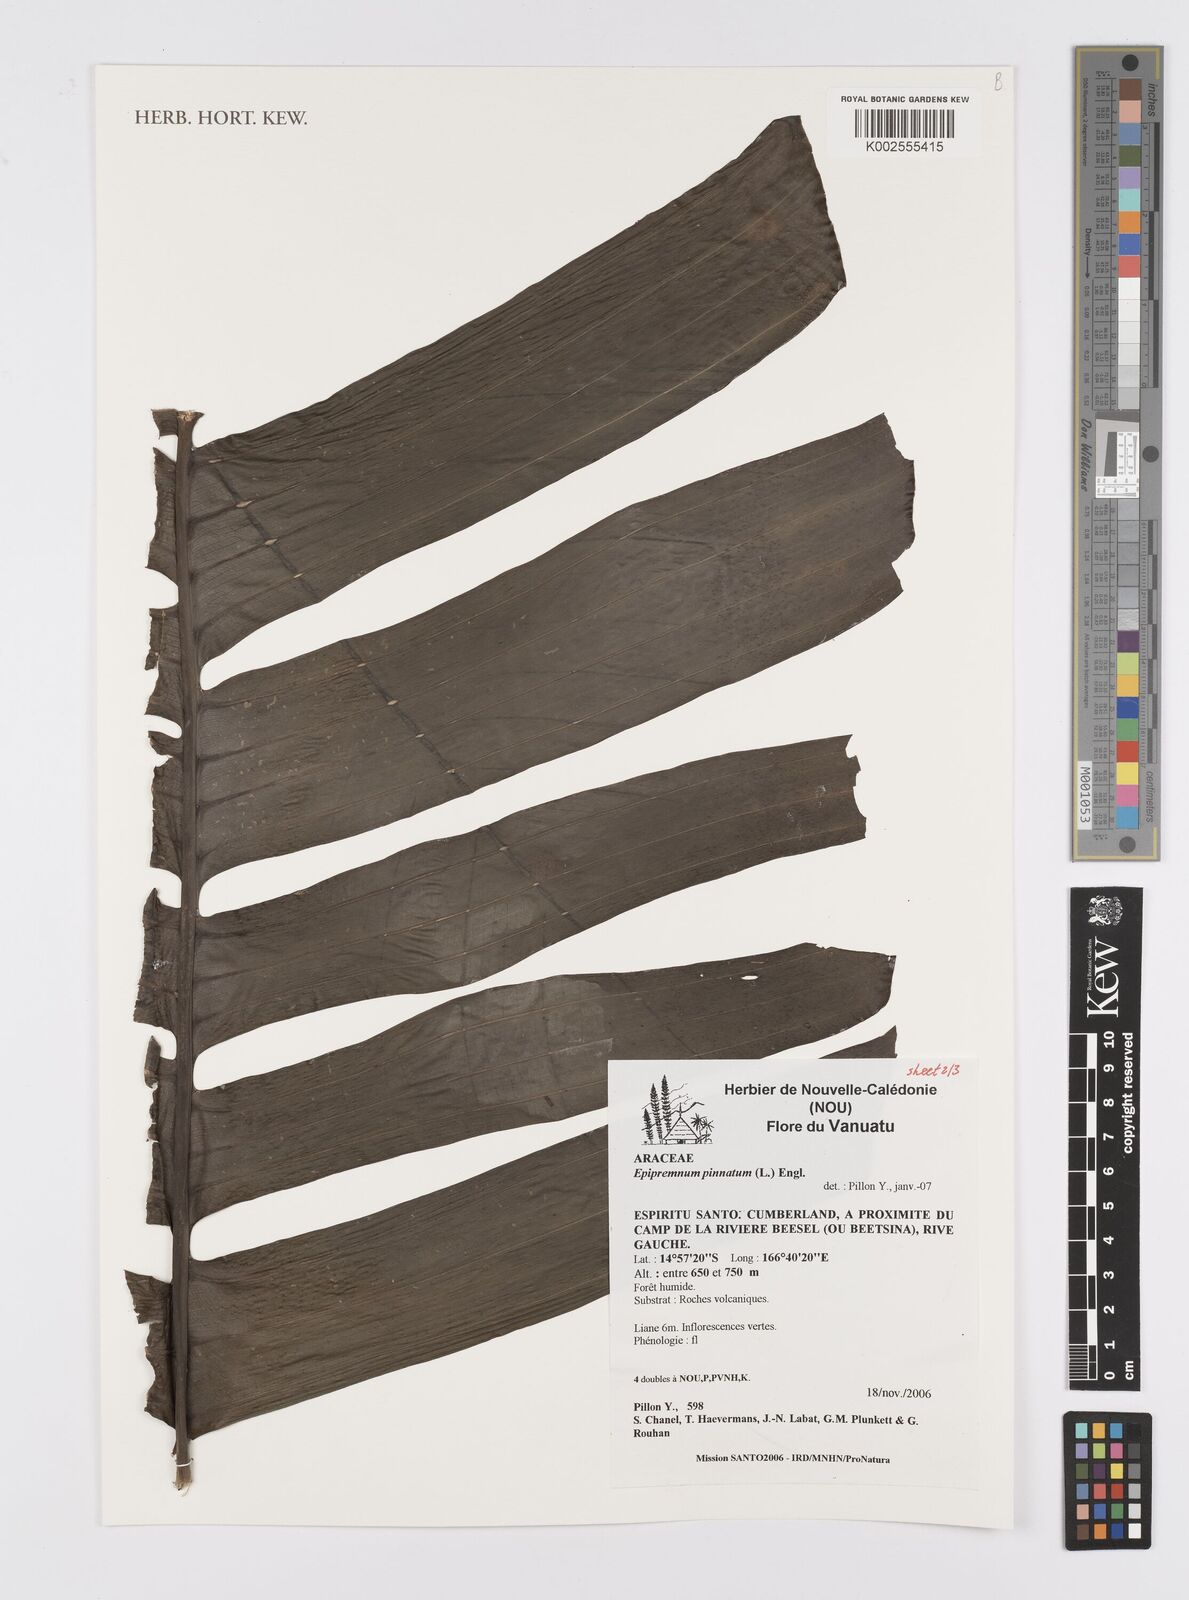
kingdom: Plantae
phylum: Tracheophyta
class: Liliopsida
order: Alismatales
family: Araceae
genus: Epipremnum
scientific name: Epipremnum pinnatum
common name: Centipede tongavine
